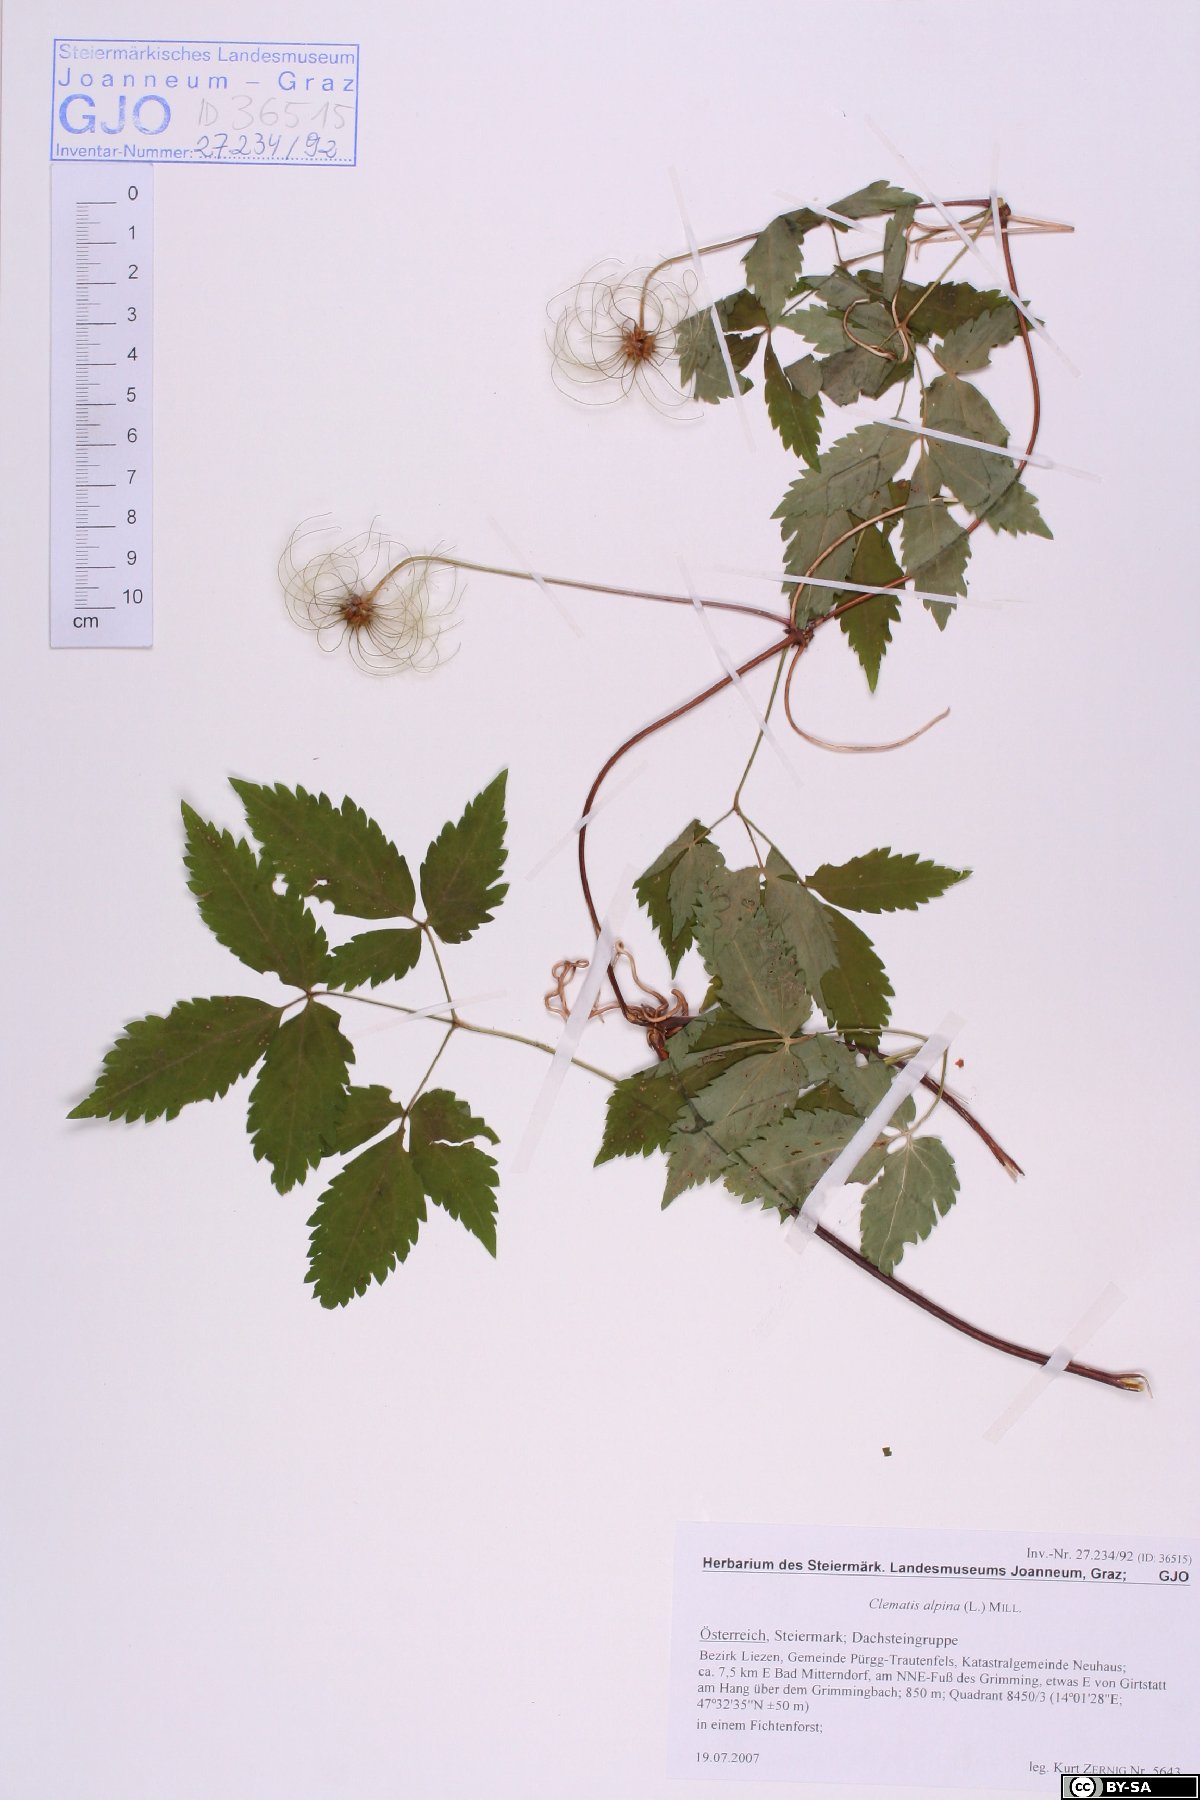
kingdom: Plantae
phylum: Tracheophyta
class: Magnoliopsida
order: Ranunculales
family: Ranunculaceae
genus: Clematis
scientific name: Clematis alpina
